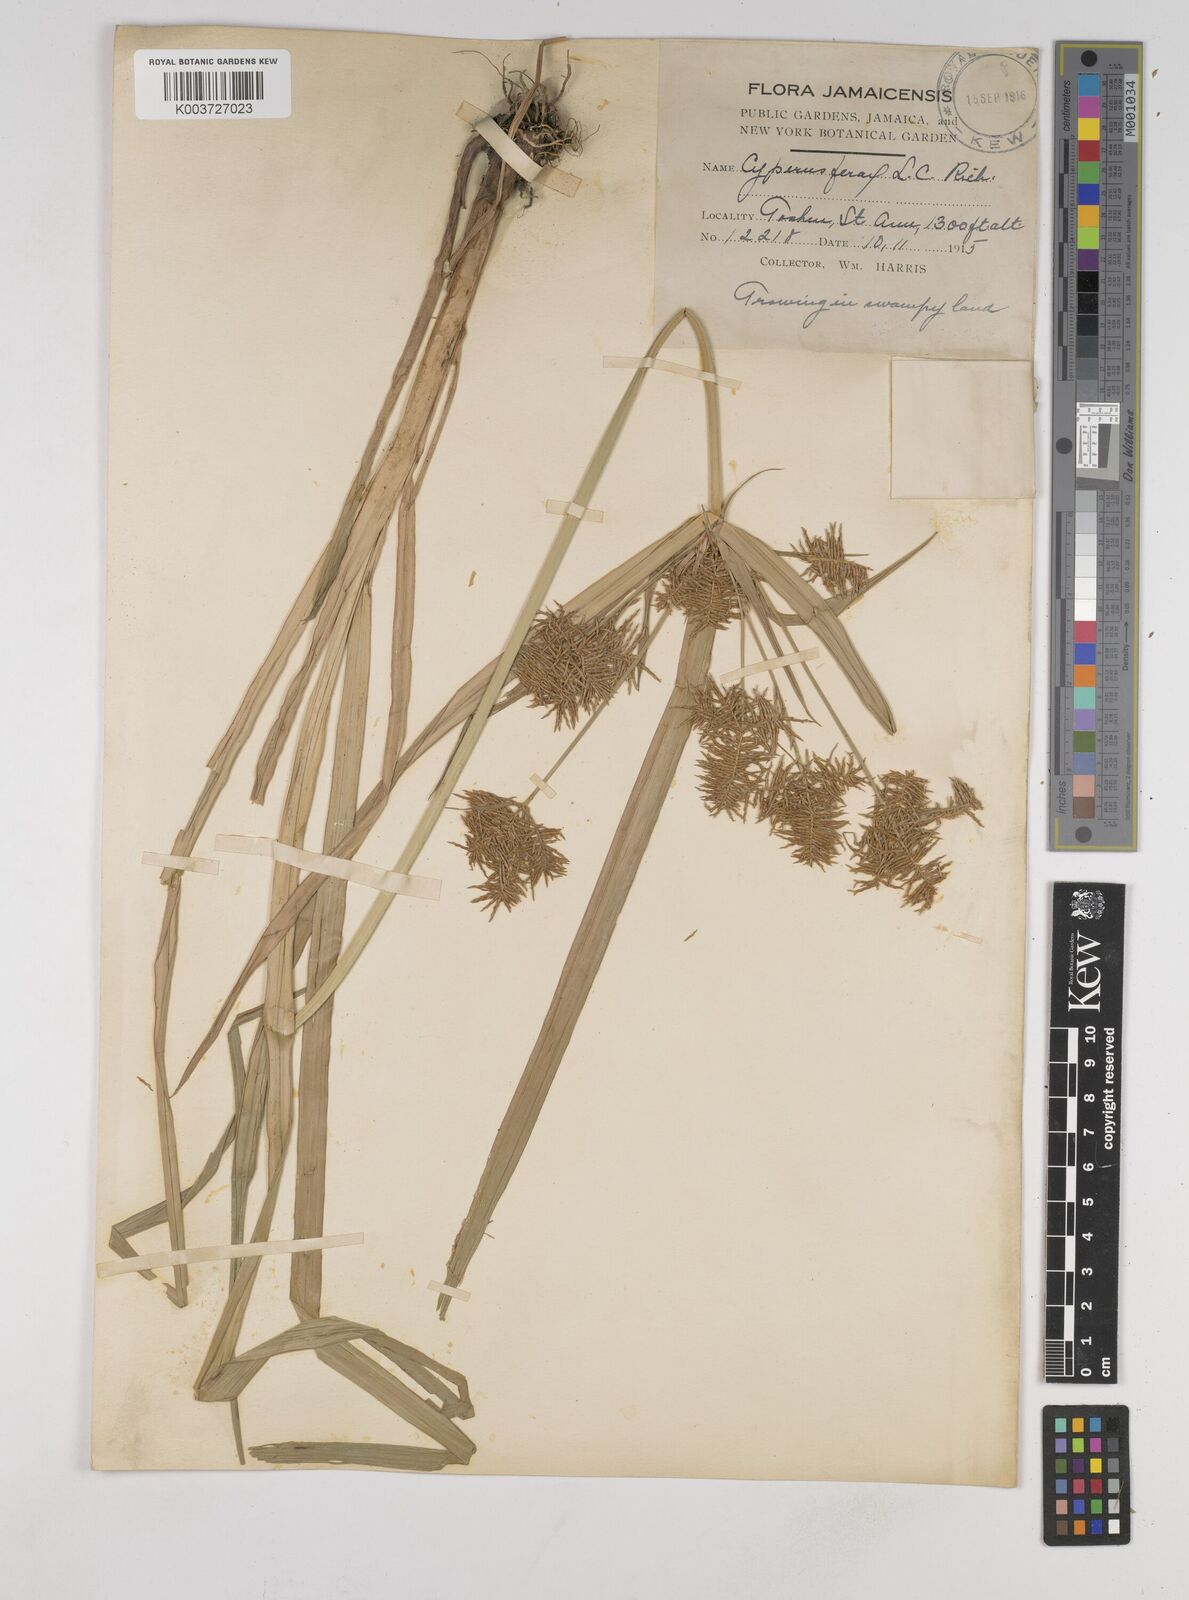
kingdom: Plantae
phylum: Tracheophyta
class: Liliopsida
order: Poales
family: Cyperaceae
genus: Cyperus
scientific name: Cyperus odoratus
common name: Fragrant flatsedge
